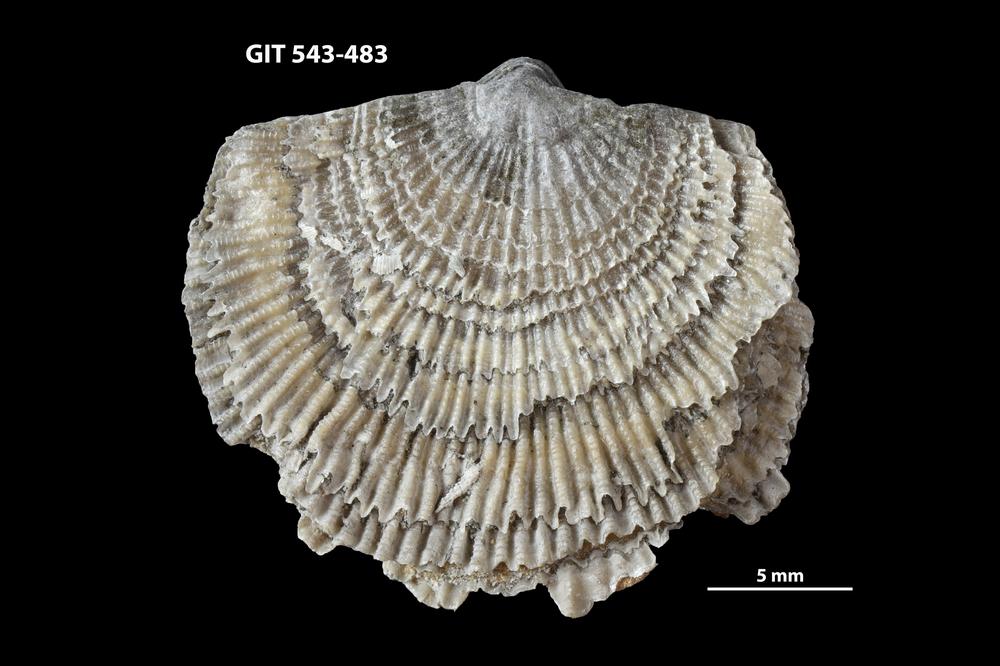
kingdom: Animalia
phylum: Brachiopoda
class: Rhynchonellata
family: Clitambonitidae
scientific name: Clitambonitidae
